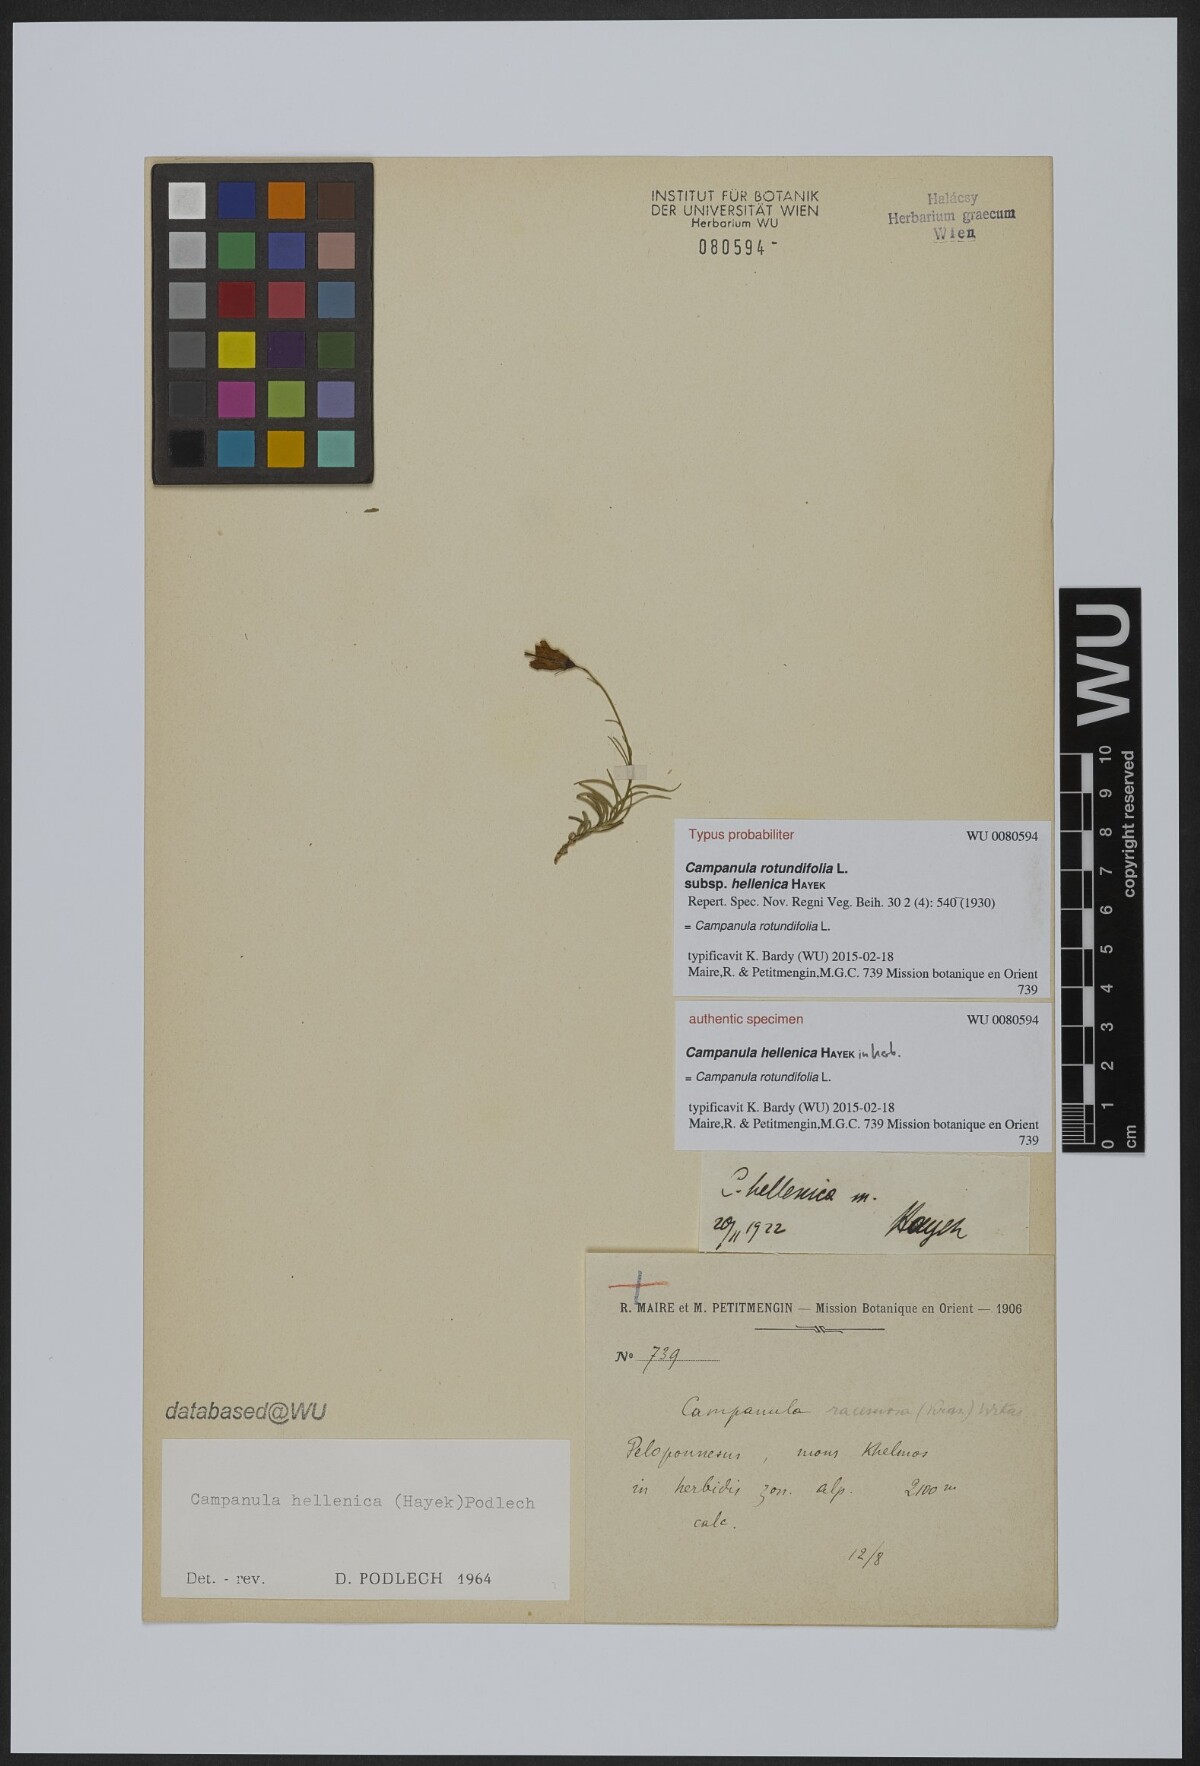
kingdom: Plantae
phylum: Tracheophyta
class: Magnoliopsida
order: Asterales
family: Campanulaceae
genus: Campanula
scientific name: Campanula albanica
